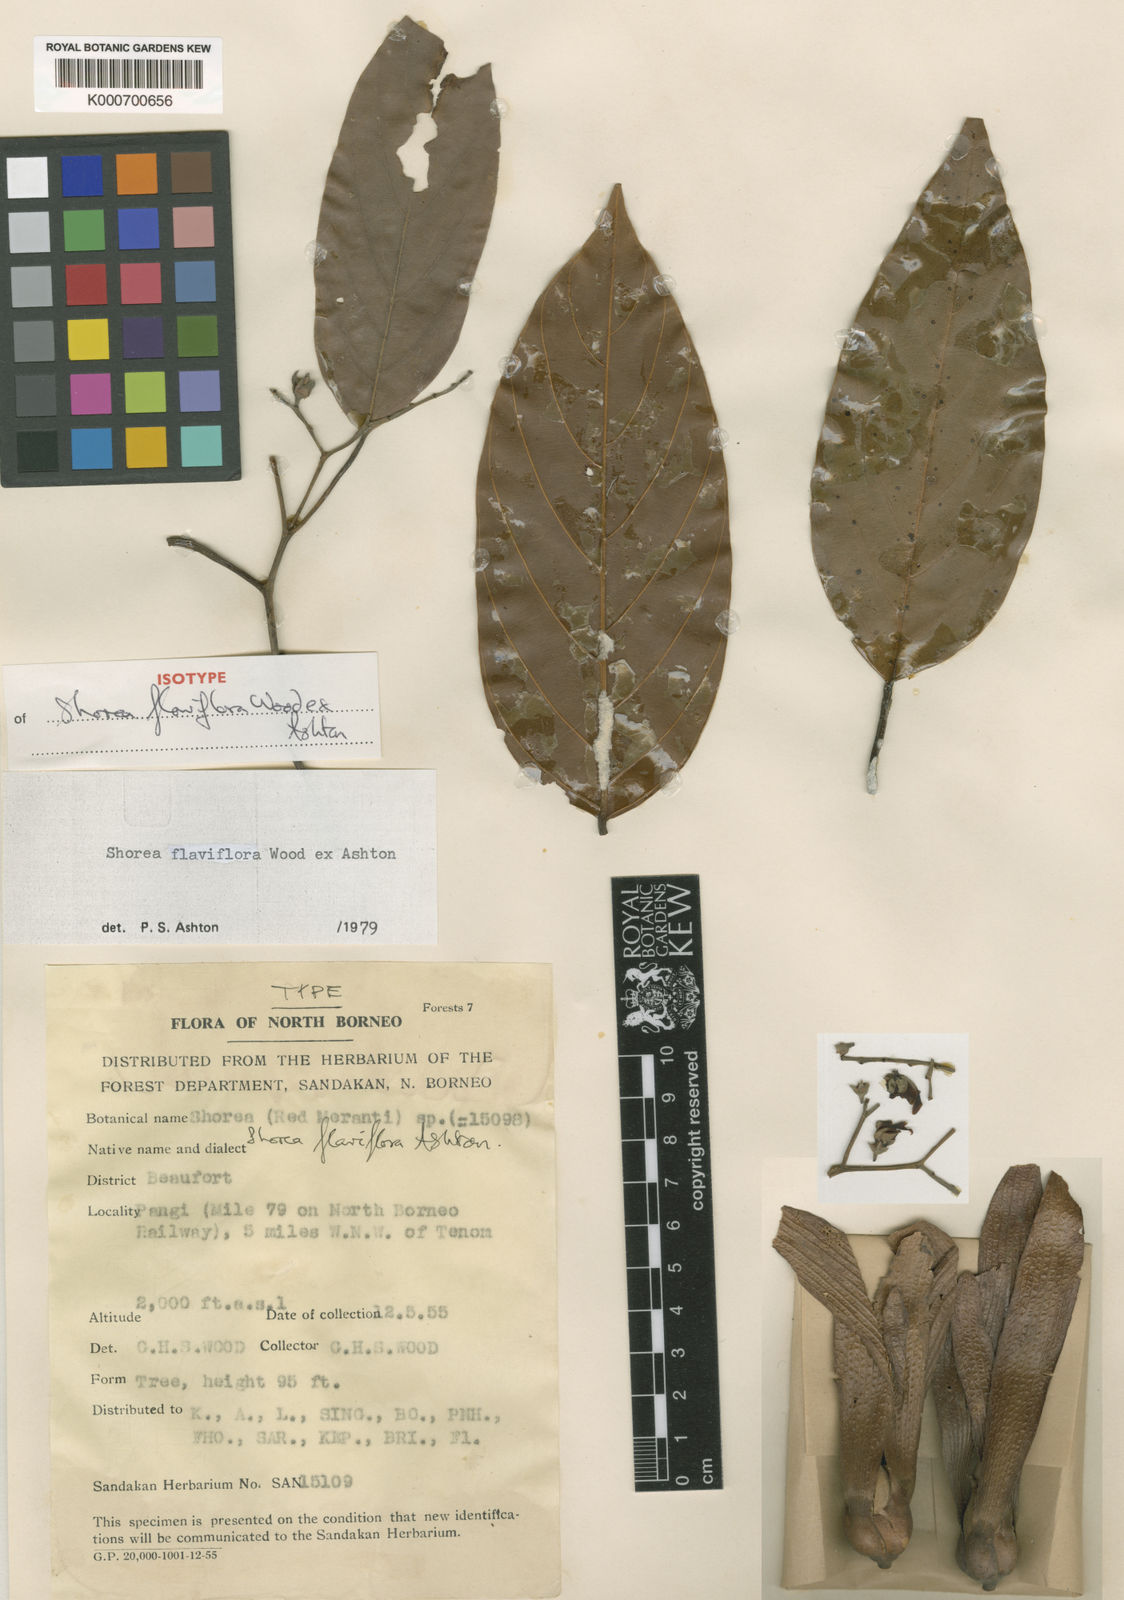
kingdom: Plantae
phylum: Tracheophyta
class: Magnoliopsida
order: Malvales
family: Dipterocarpaceae
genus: Shorea
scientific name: Shorea flaviflora
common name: Dark red meranti
